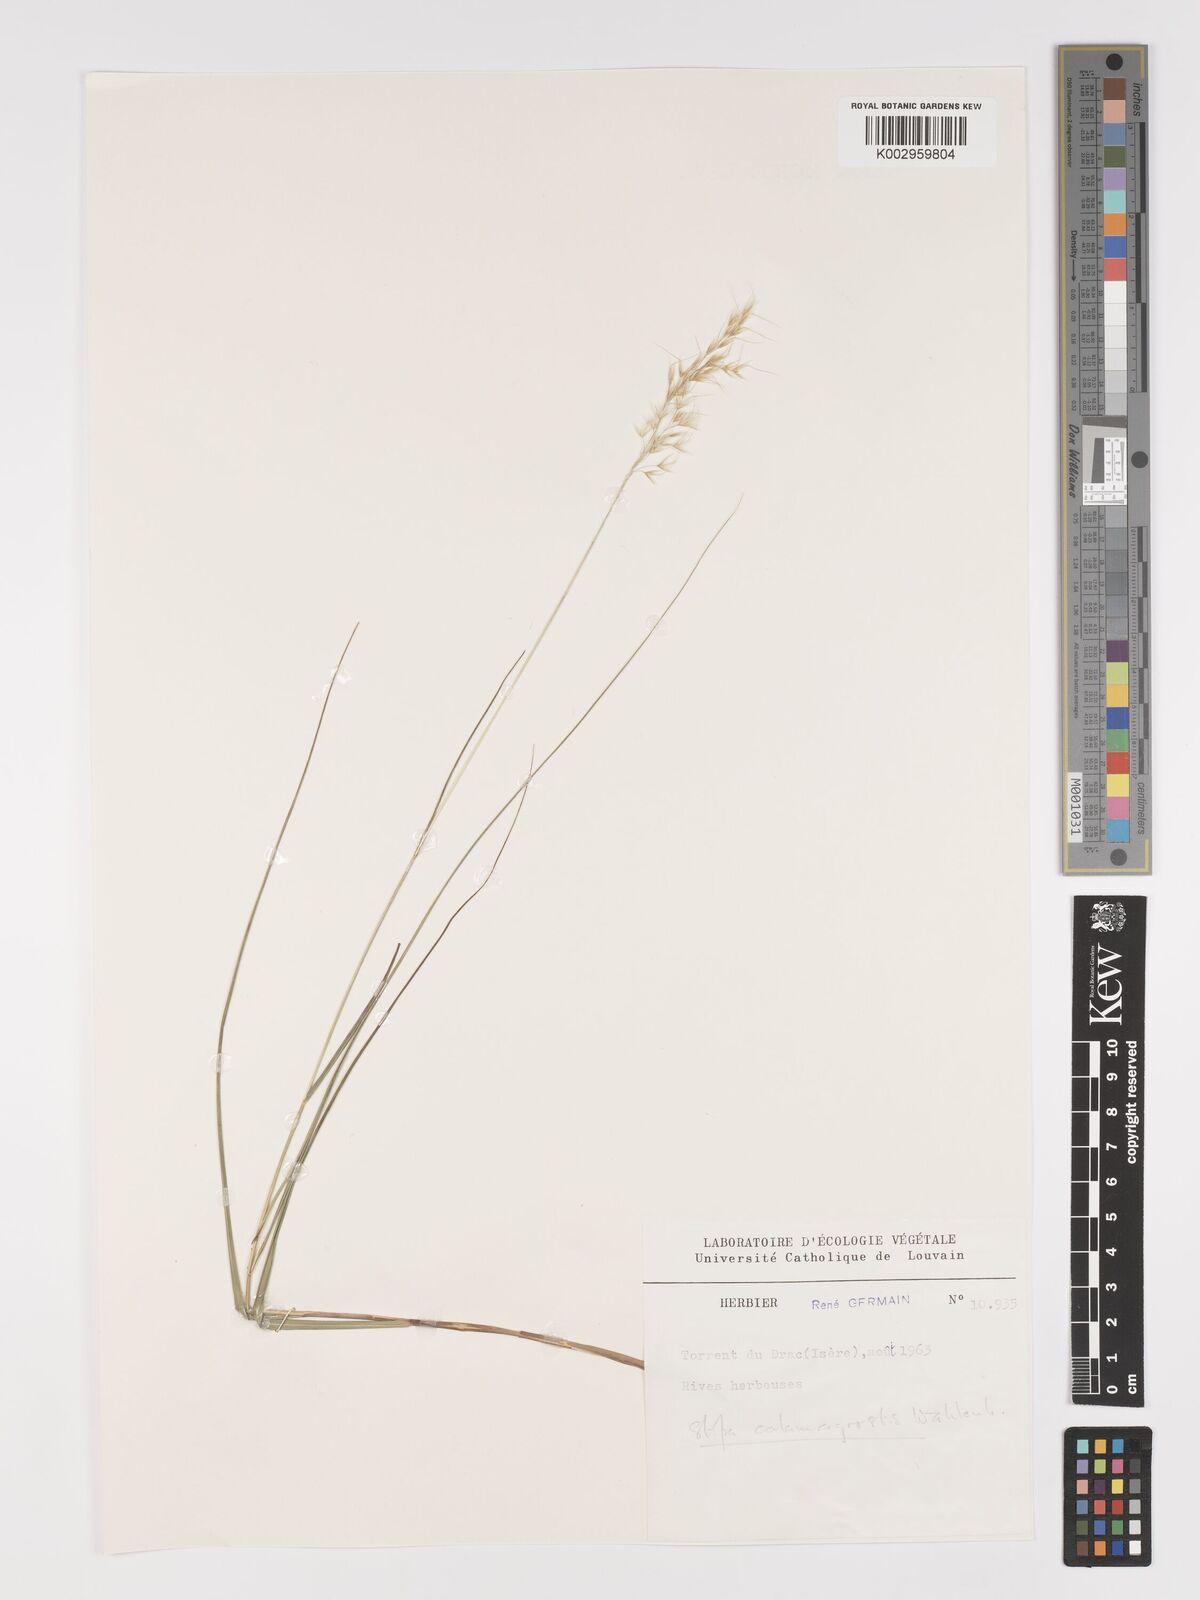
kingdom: Plantae
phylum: Tracheophyta
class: Liliopsida
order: Poales
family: Poaceae
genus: Achnatherum
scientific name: Achnatherum calamagrostis
